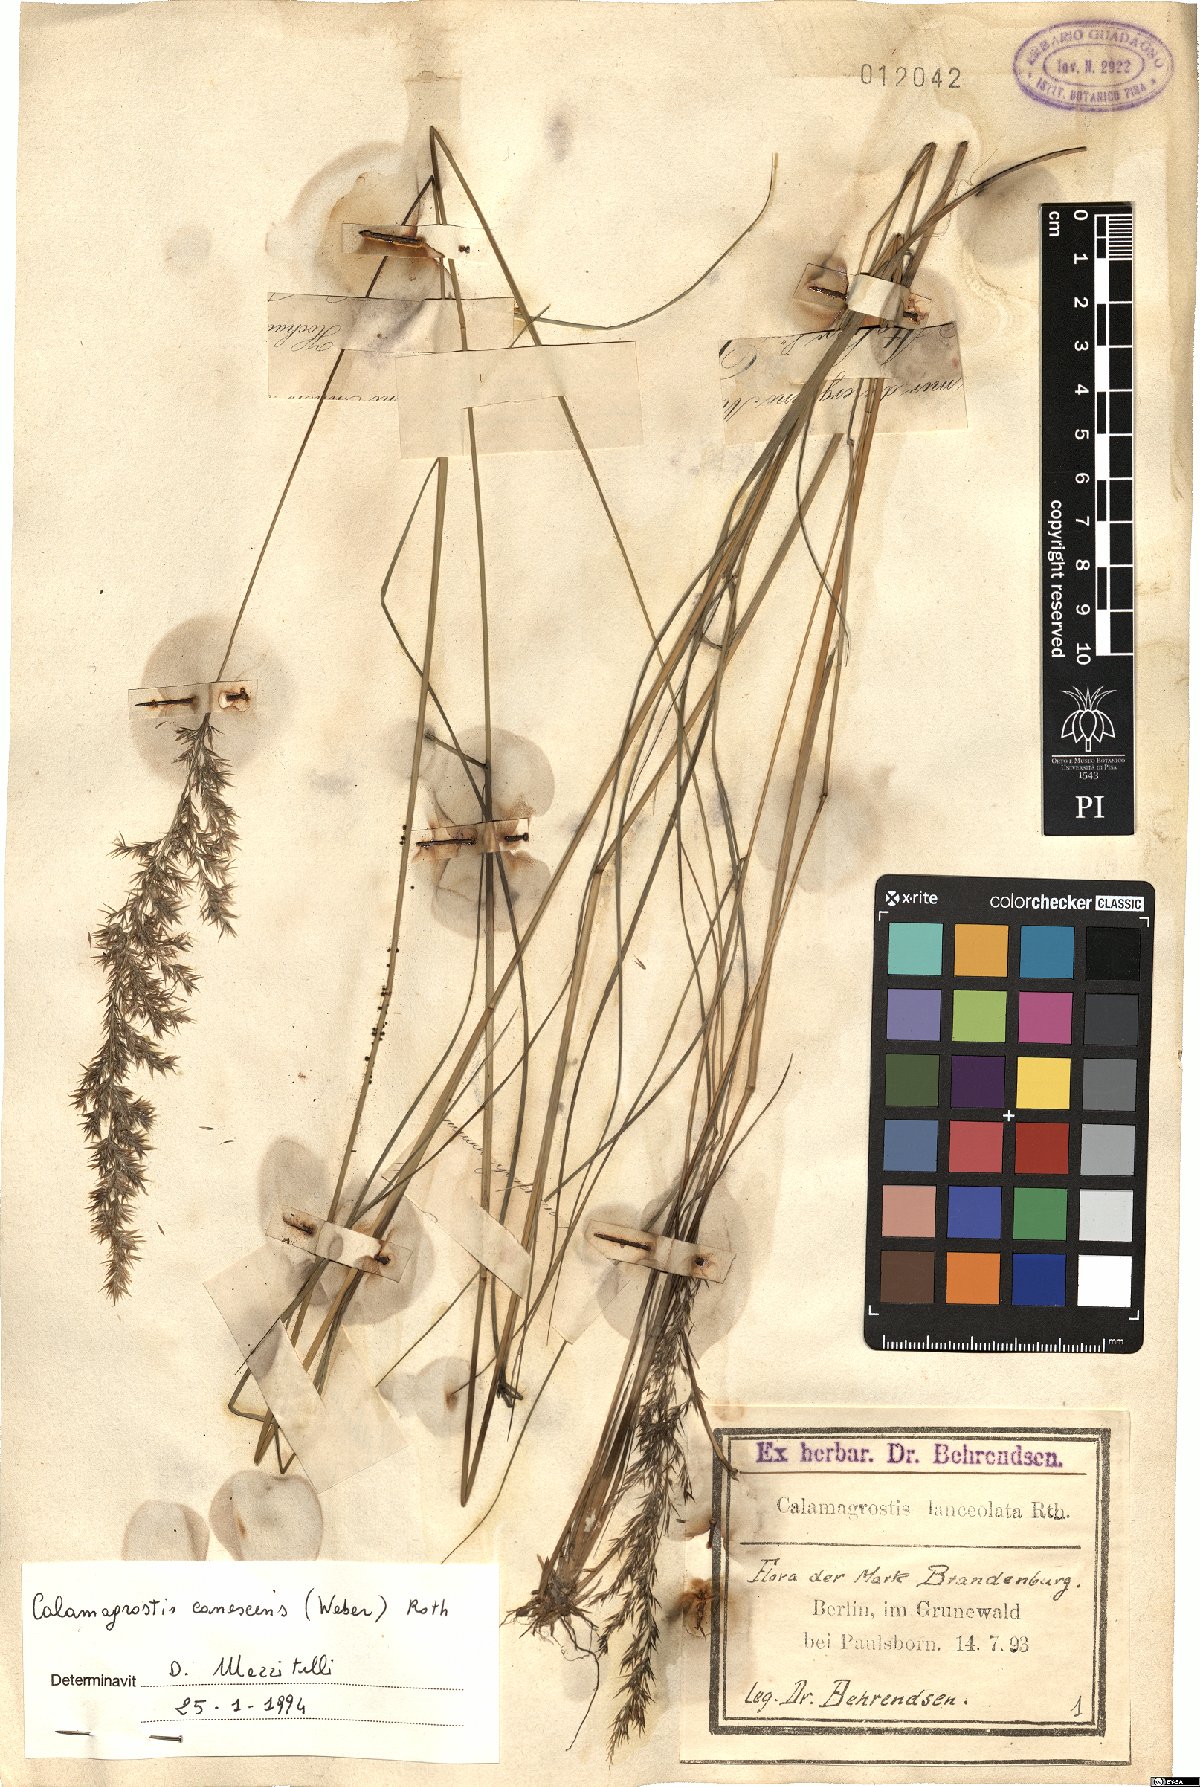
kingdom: Plantae
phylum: Tracheophyta
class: Liliopsida
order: Poales
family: Poaceae
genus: Calamagrostis
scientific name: Calamagrostis canescens
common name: Purple small-reed
